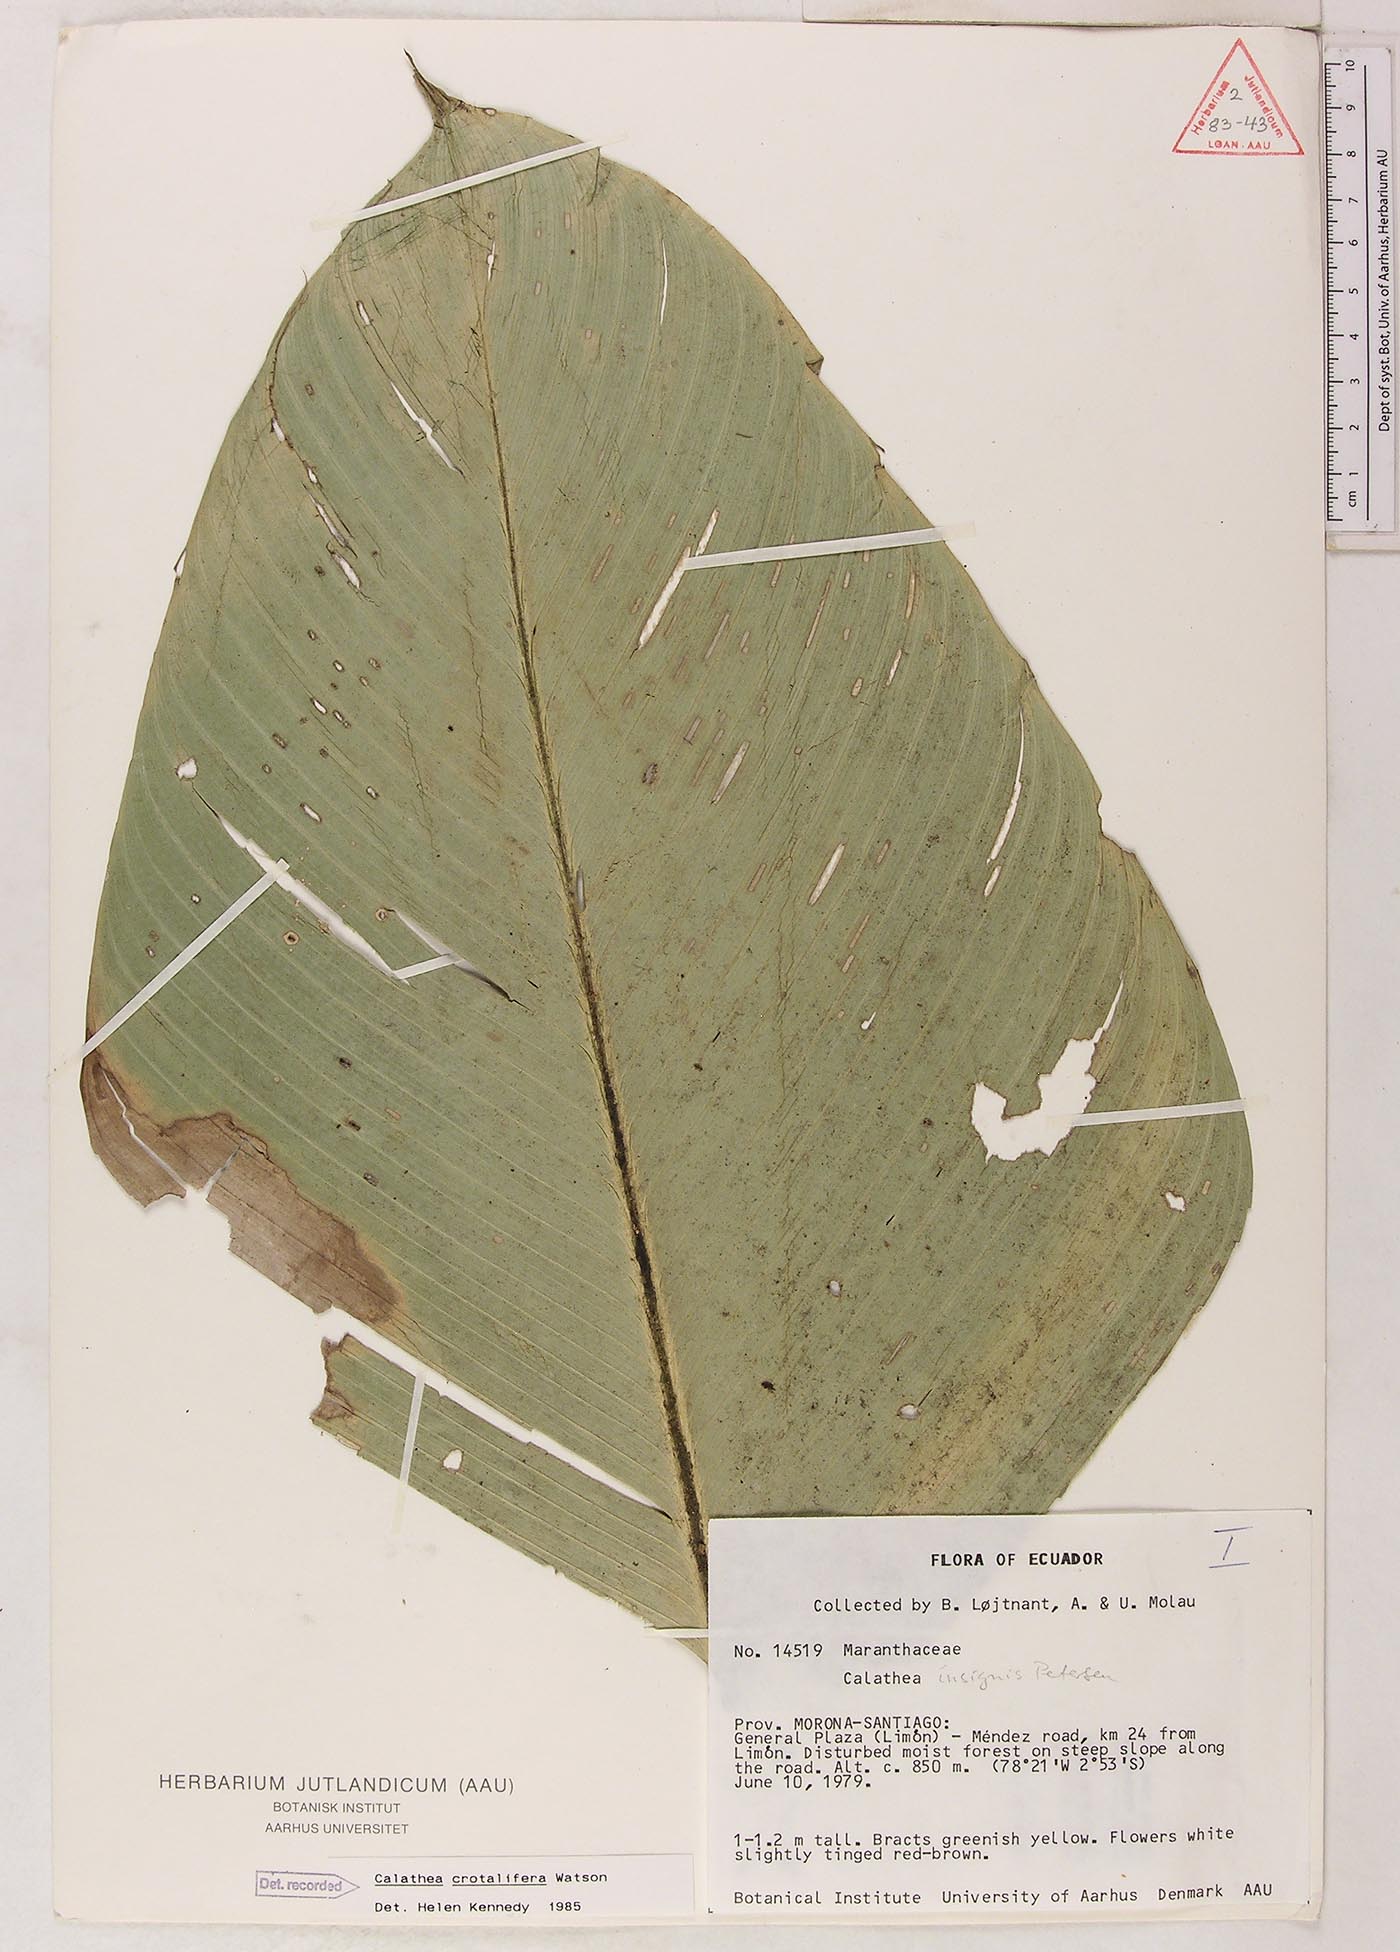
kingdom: Plantae
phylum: Tracheophyta
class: Liliopsida
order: Zingiberales
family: Marantaceae
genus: Calathea
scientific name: Calathea crotalifera
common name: Rattlesnake plant
